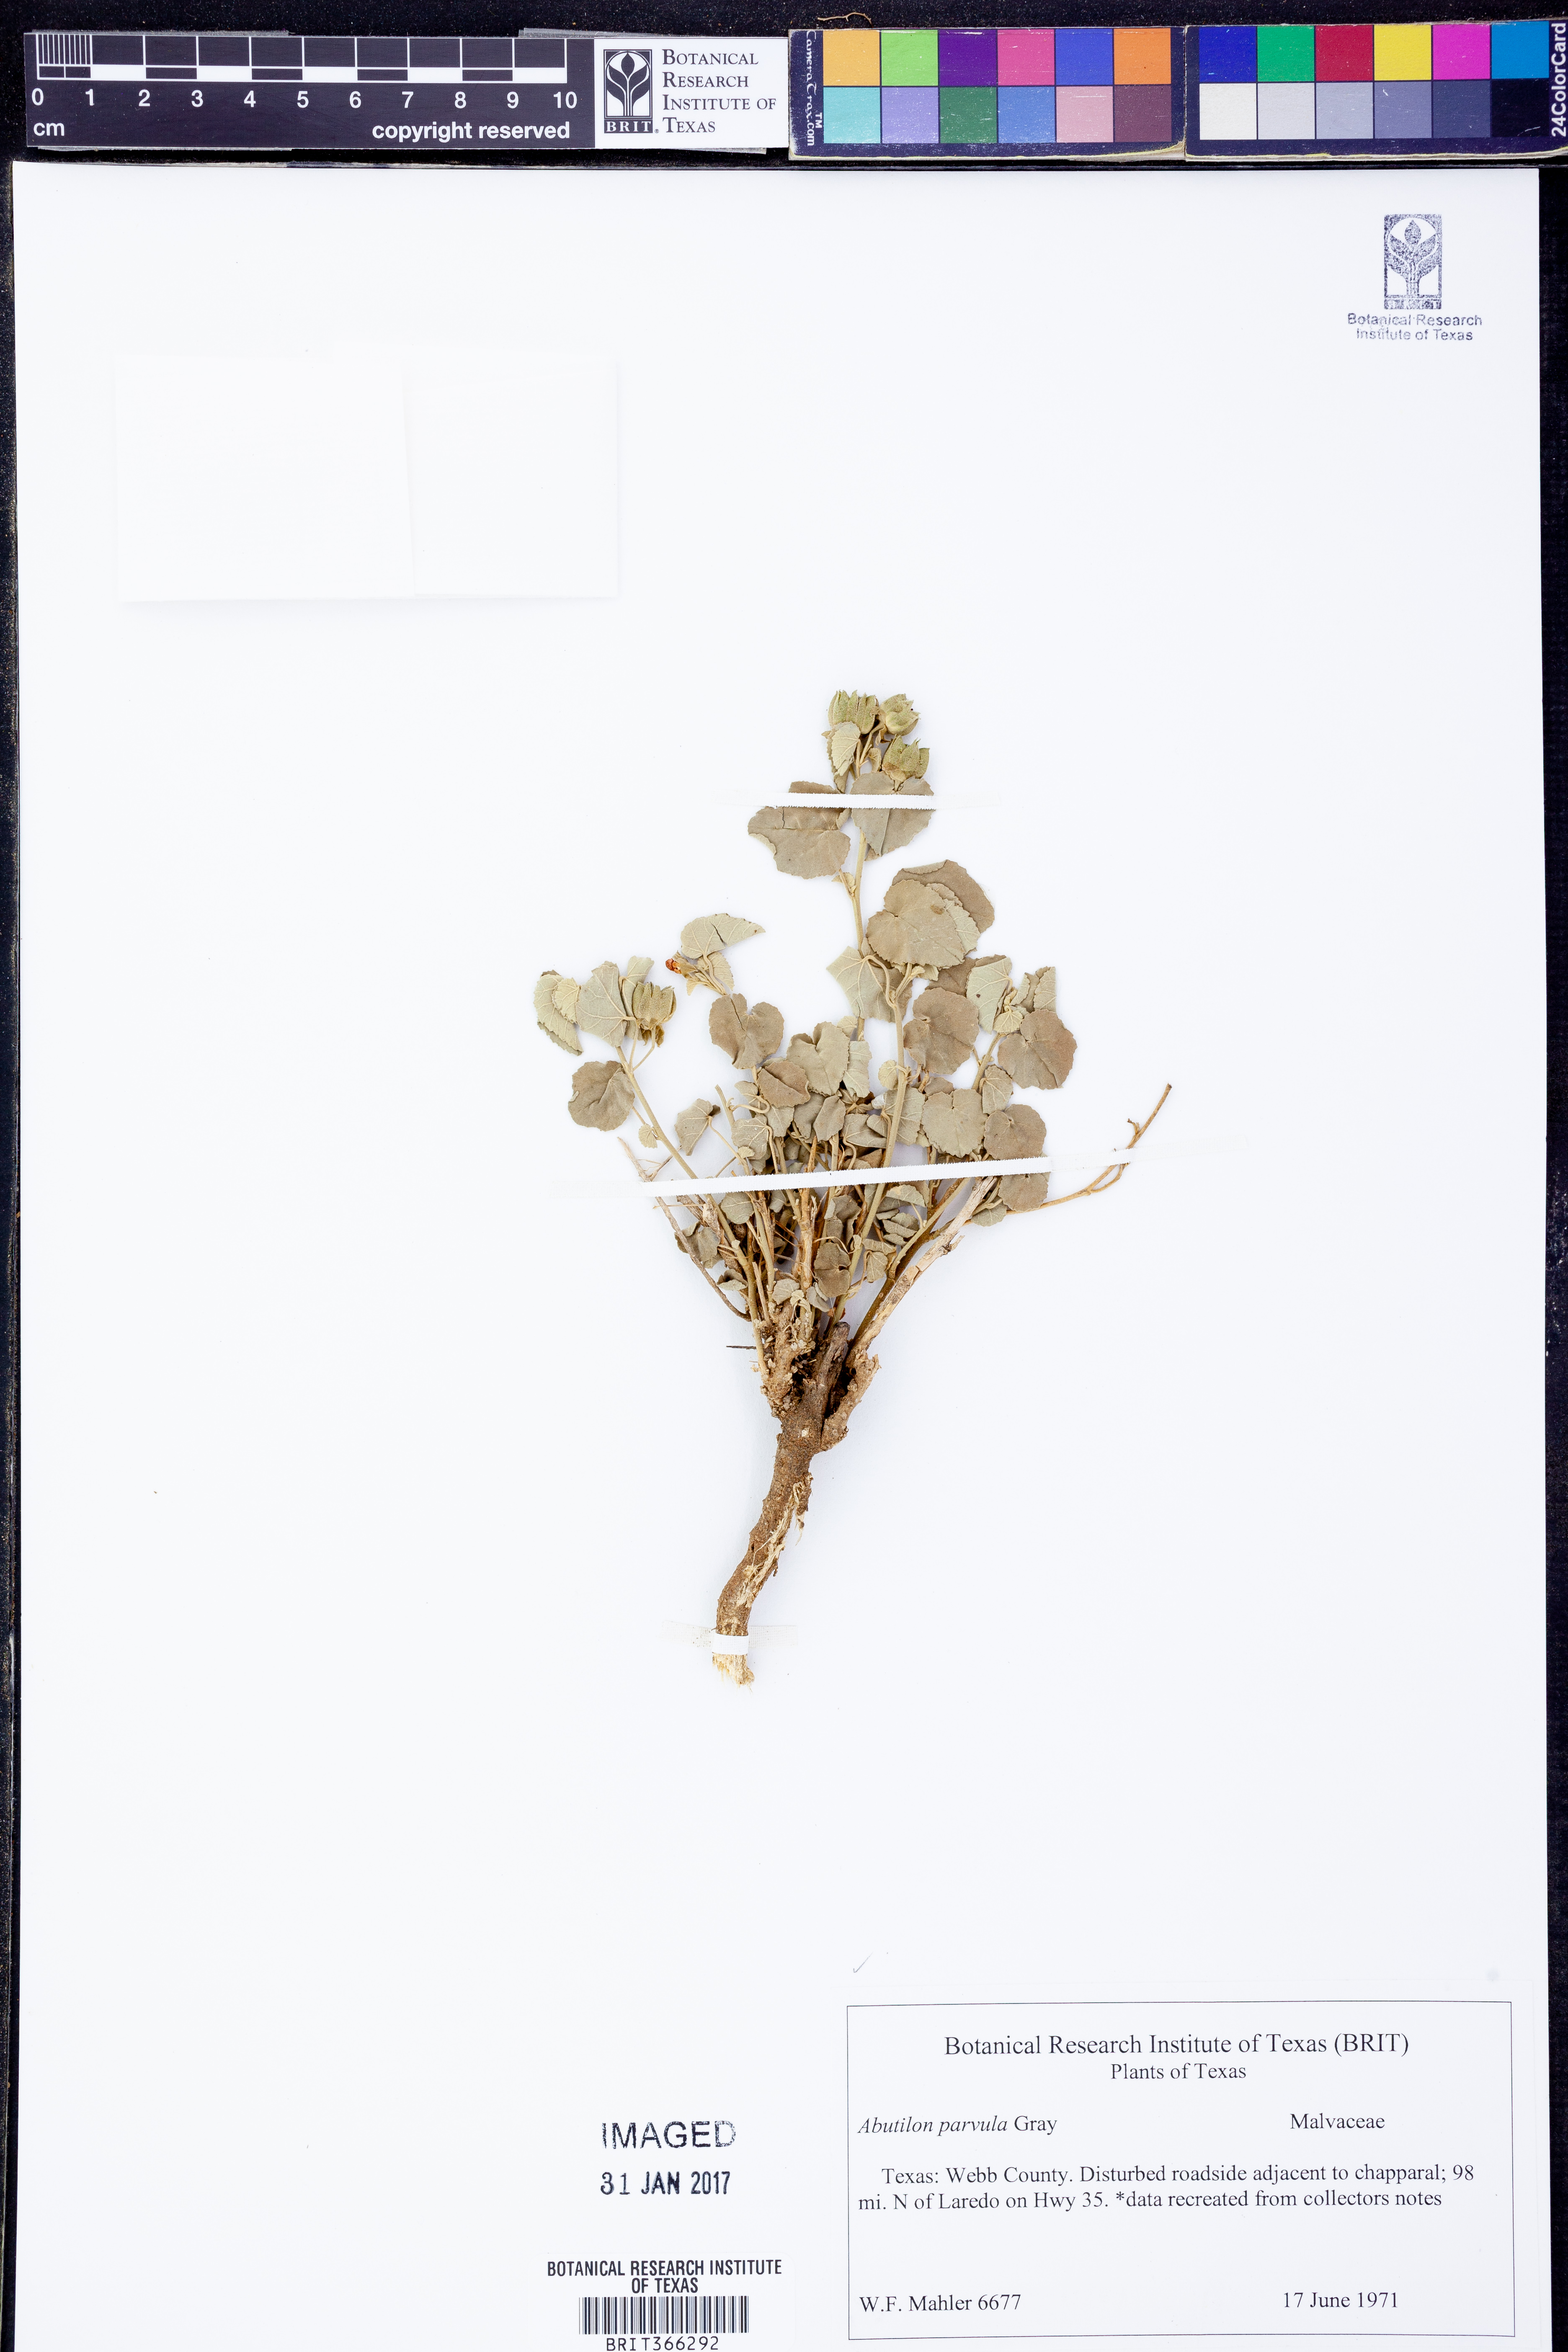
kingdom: Plantae
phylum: Tracheophyta
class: Magnoliopsida
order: Malvales
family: Malvaceae
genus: Abutilon
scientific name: Abutilon parvulum
